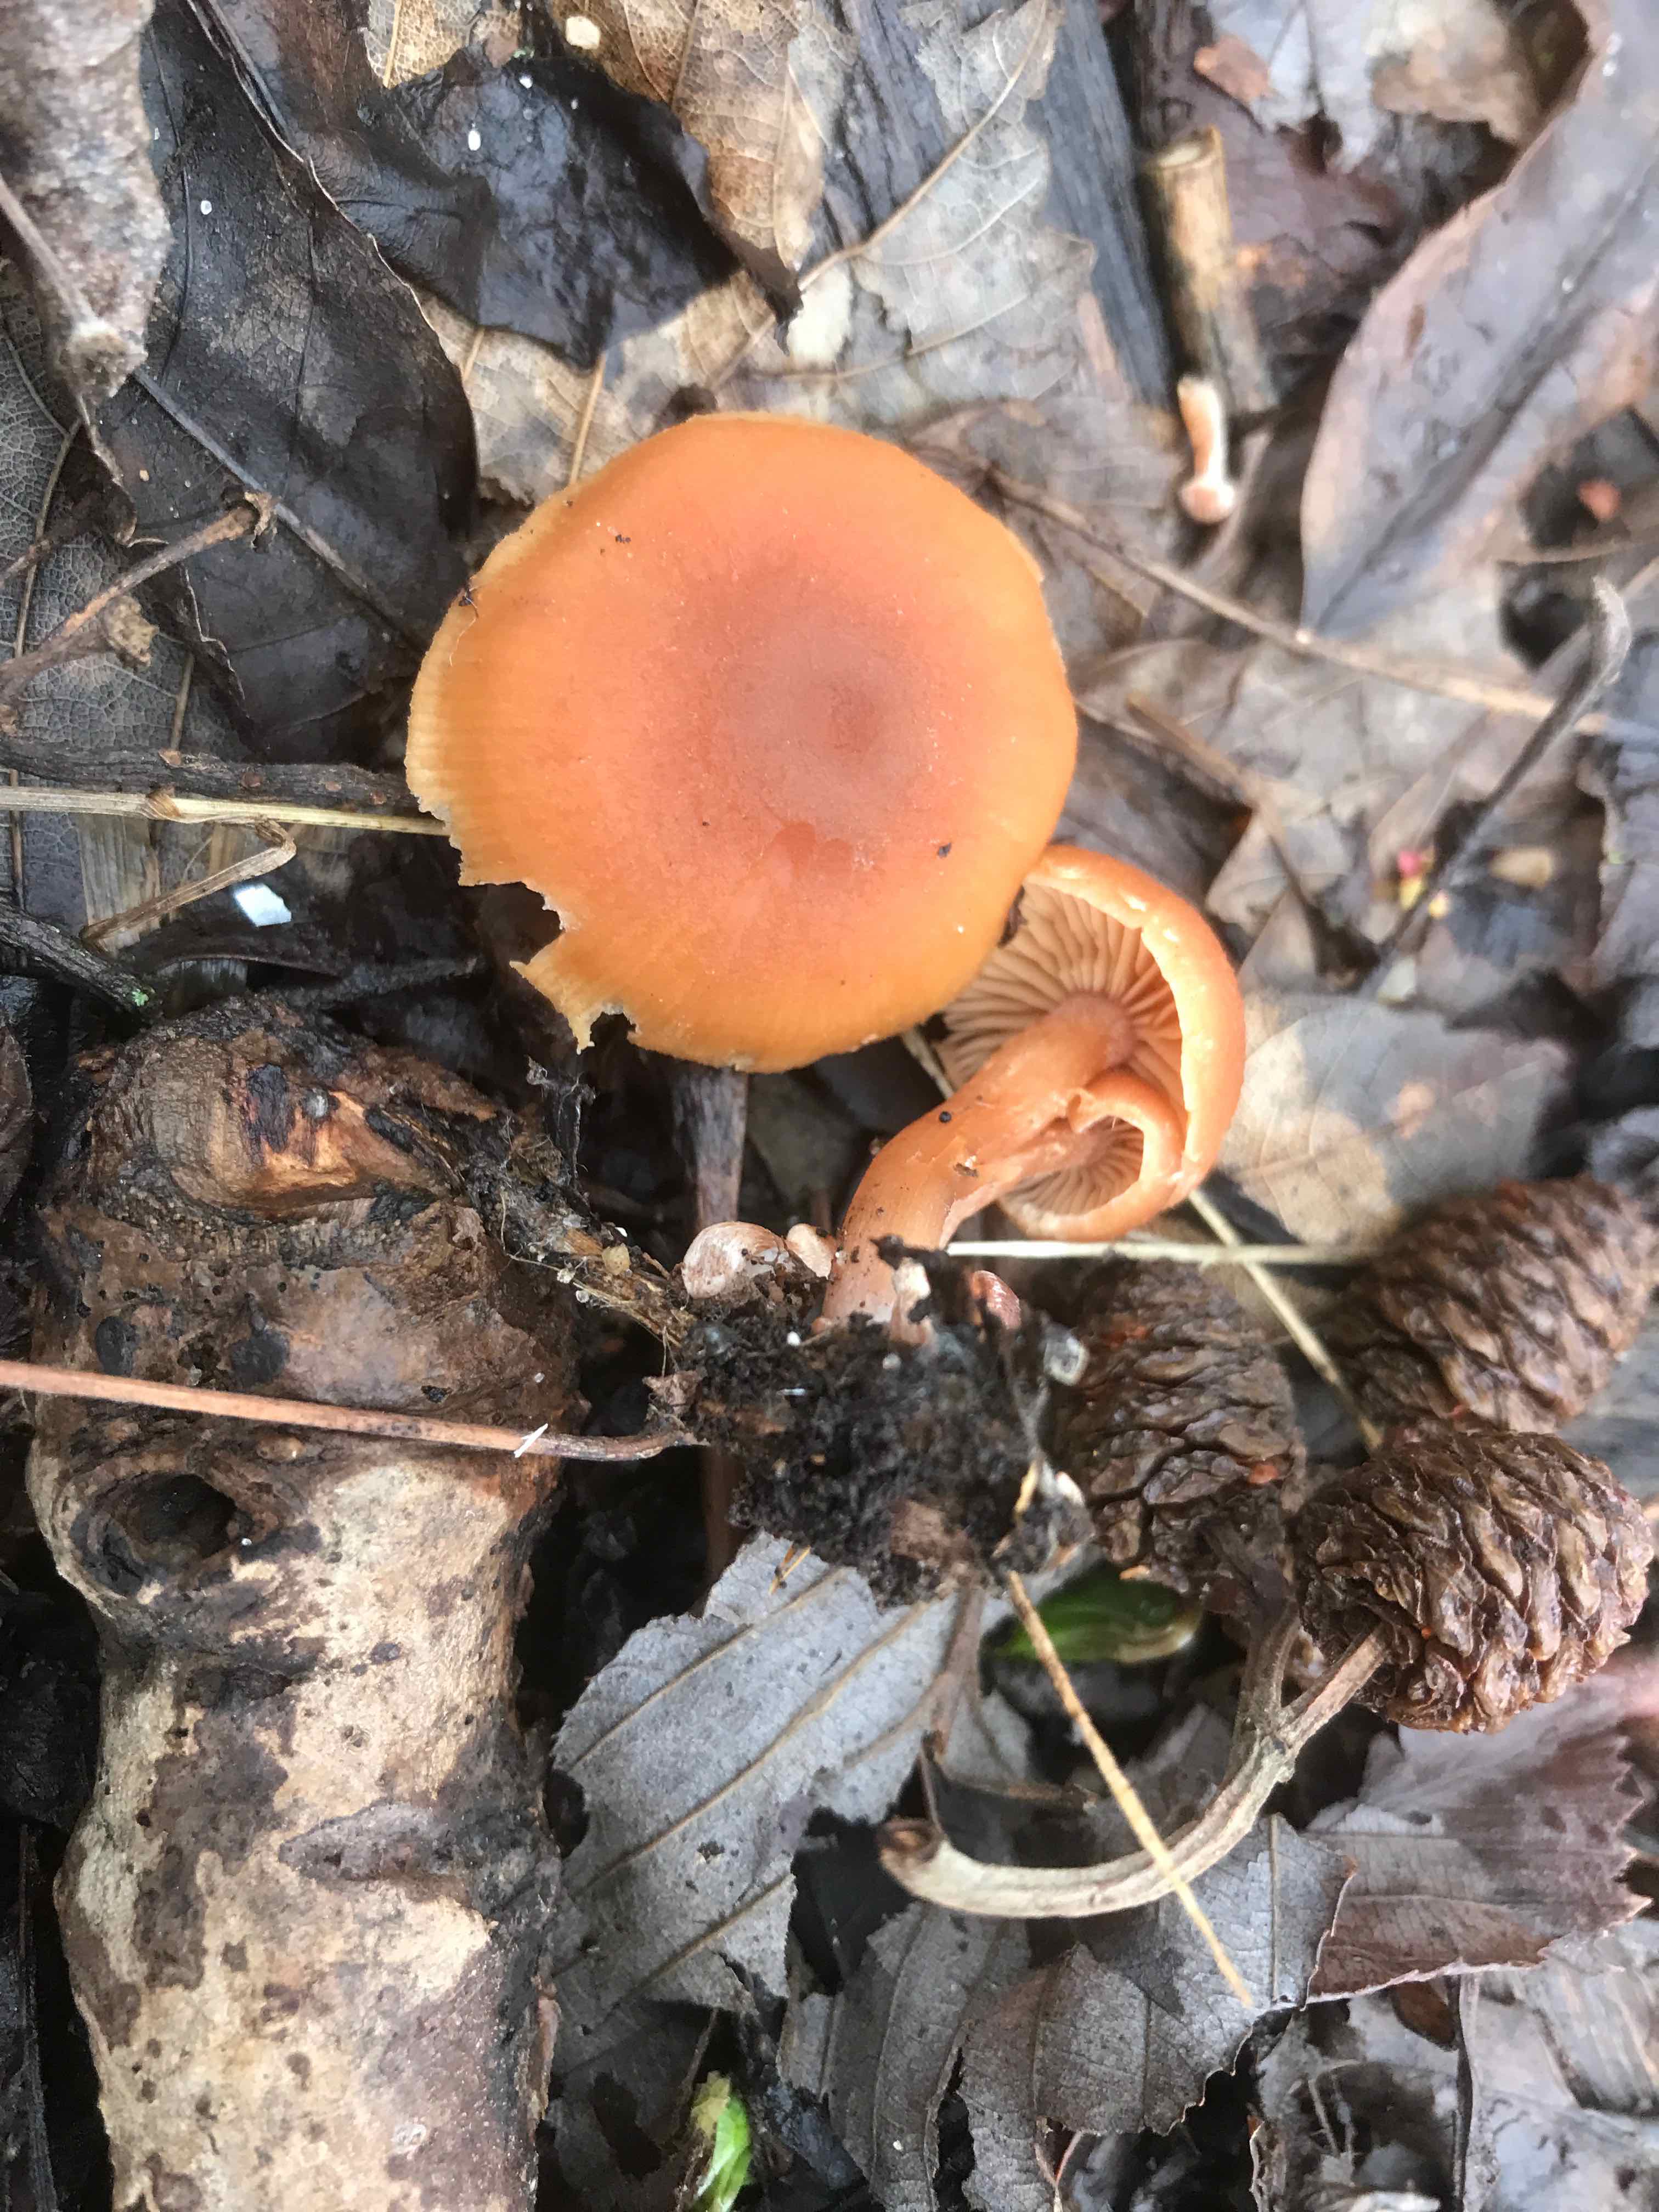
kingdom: Fungi
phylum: Basidiomycota
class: Agaricomycetes
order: Agaricales
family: Tubariaceae
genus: Tubaria
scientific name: Tubaria furfuracea
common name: kliddet fnughat
